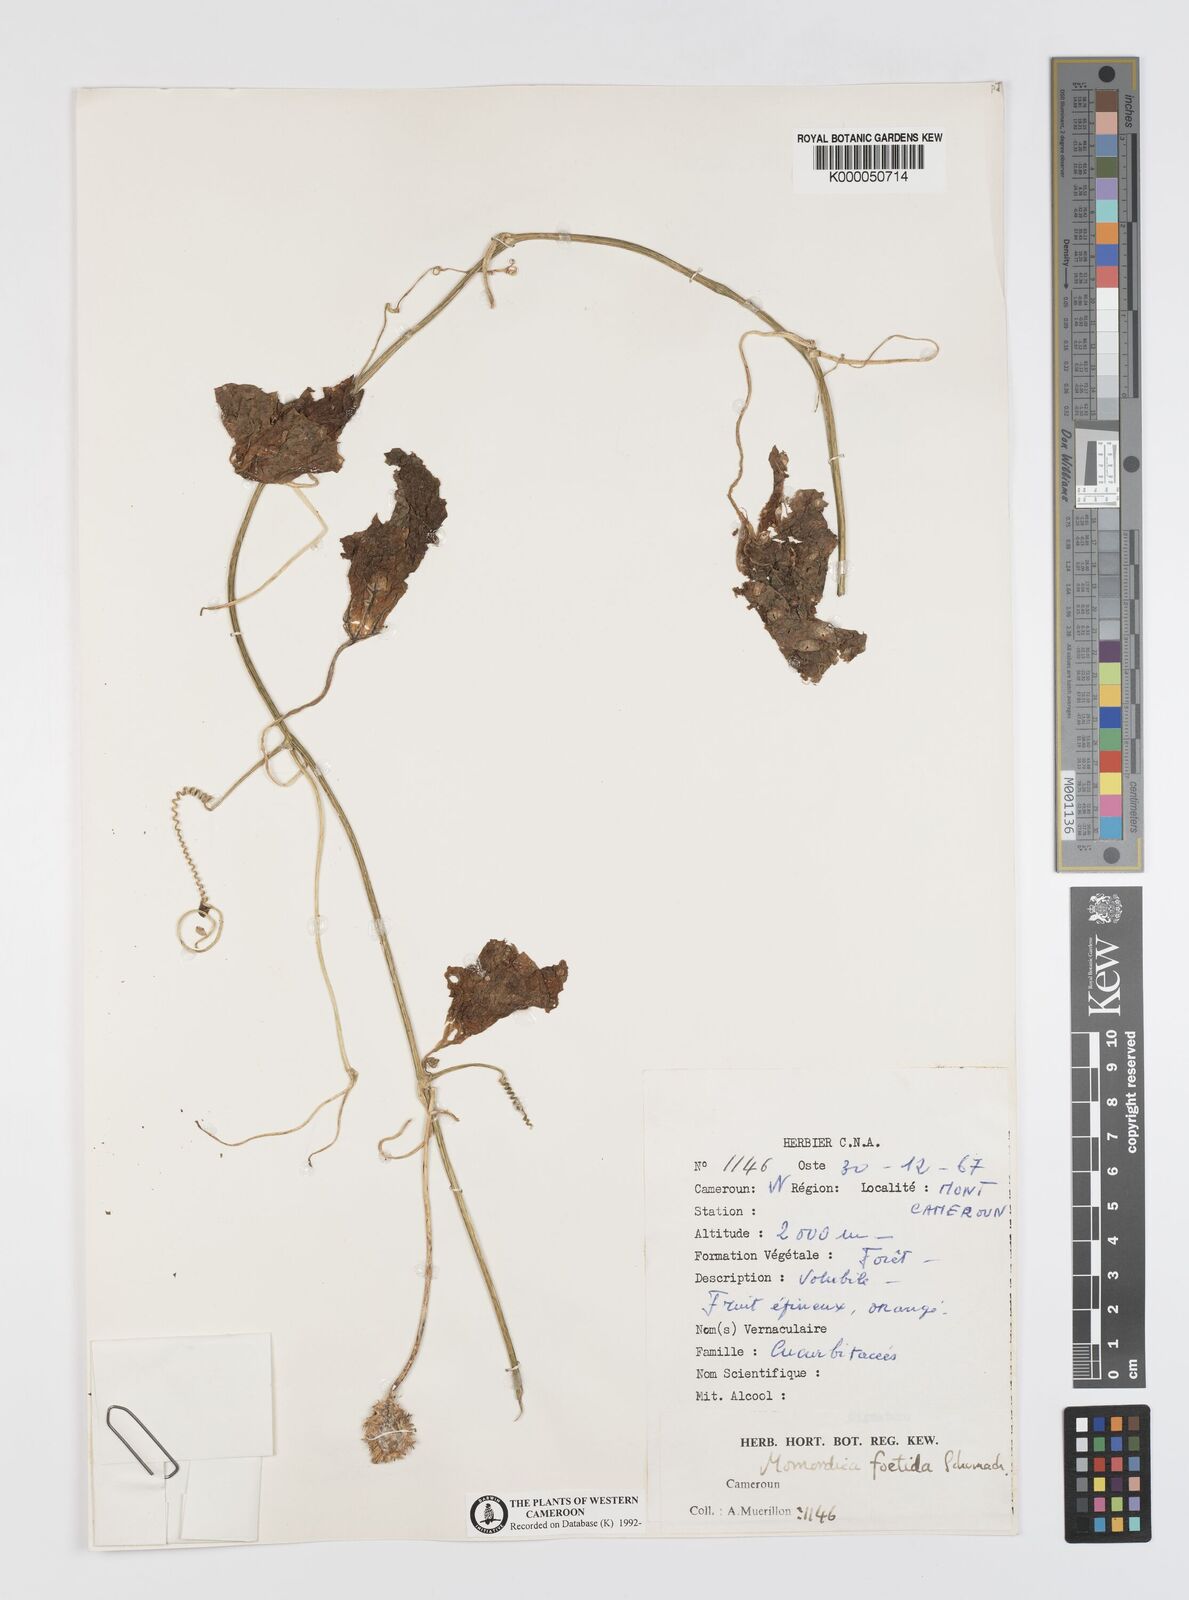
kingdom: Plantae
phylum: Tracheophyta
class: Magnoliopsida
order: Cucurbitales
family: Cucurbitaceae
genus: Momordica
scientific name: Momordica foetida
